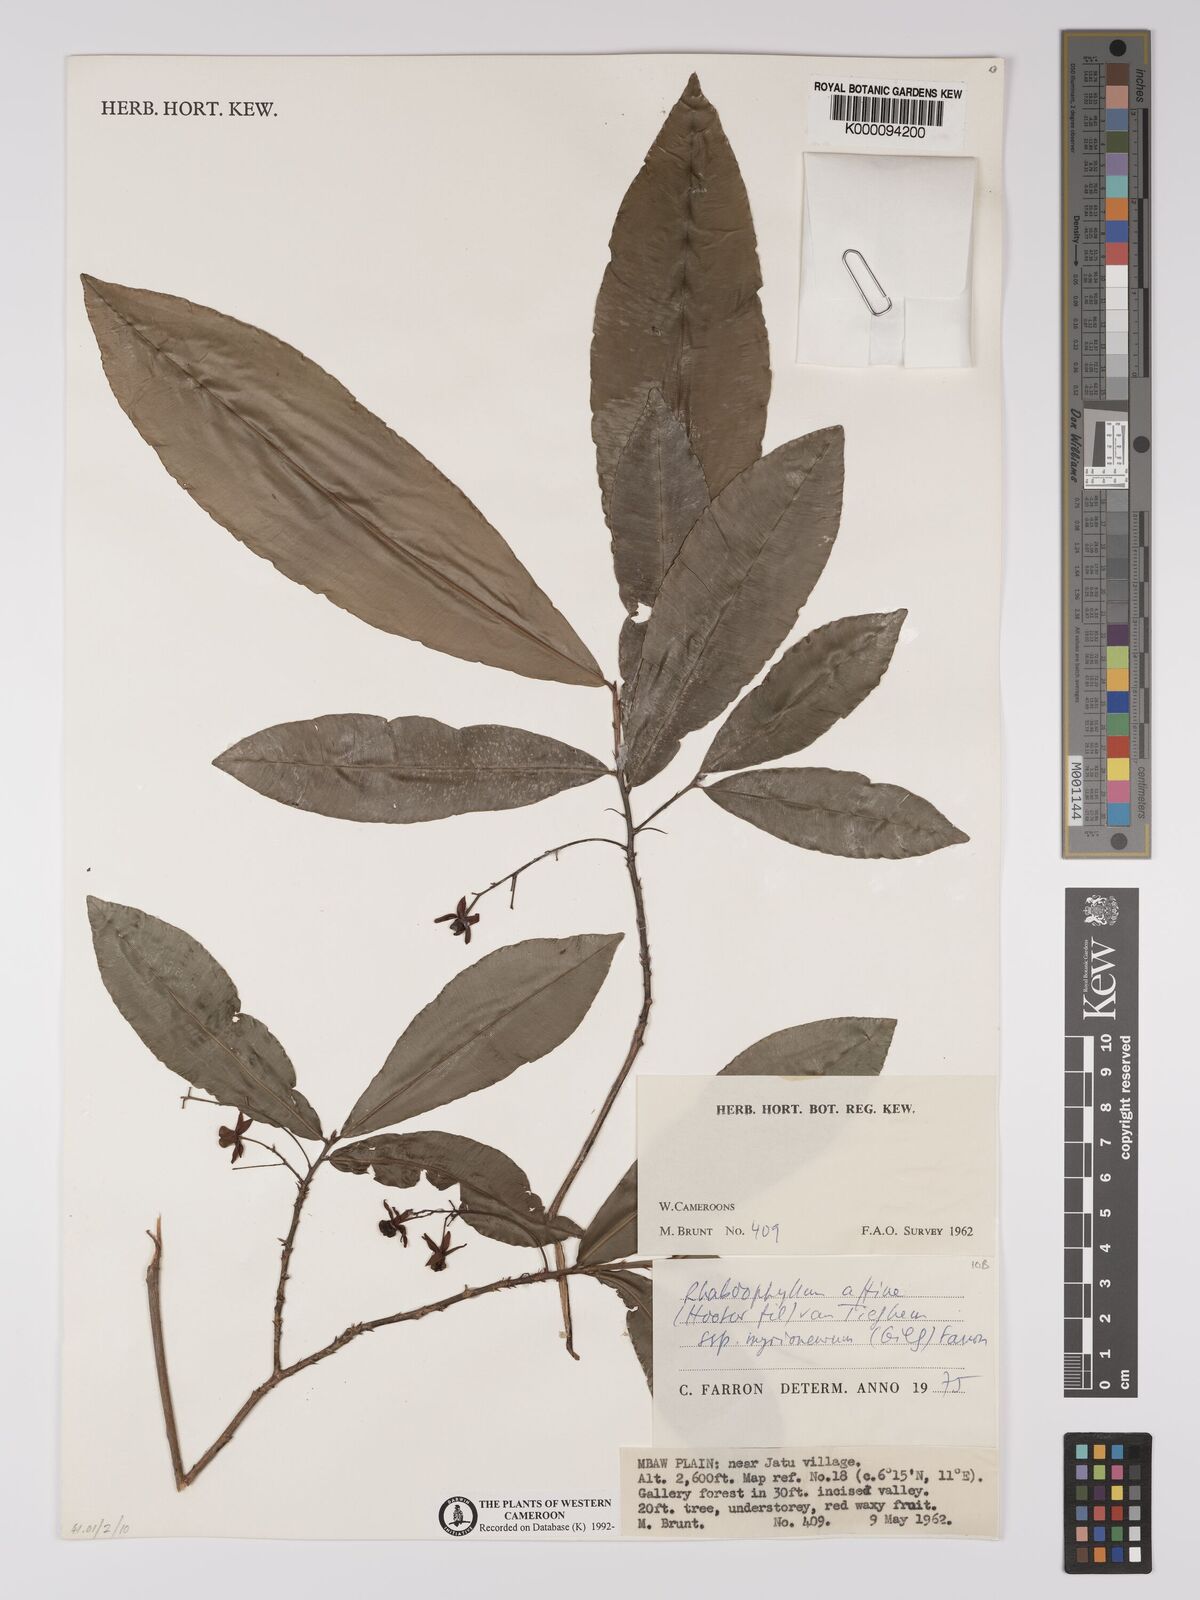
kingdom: Plantae
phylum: Tracheophyta
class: Magnoliopsida
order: Malpighiales
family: Ochnaceae
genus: Rhabdophyllum
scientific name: Rhabdophyllum affine
